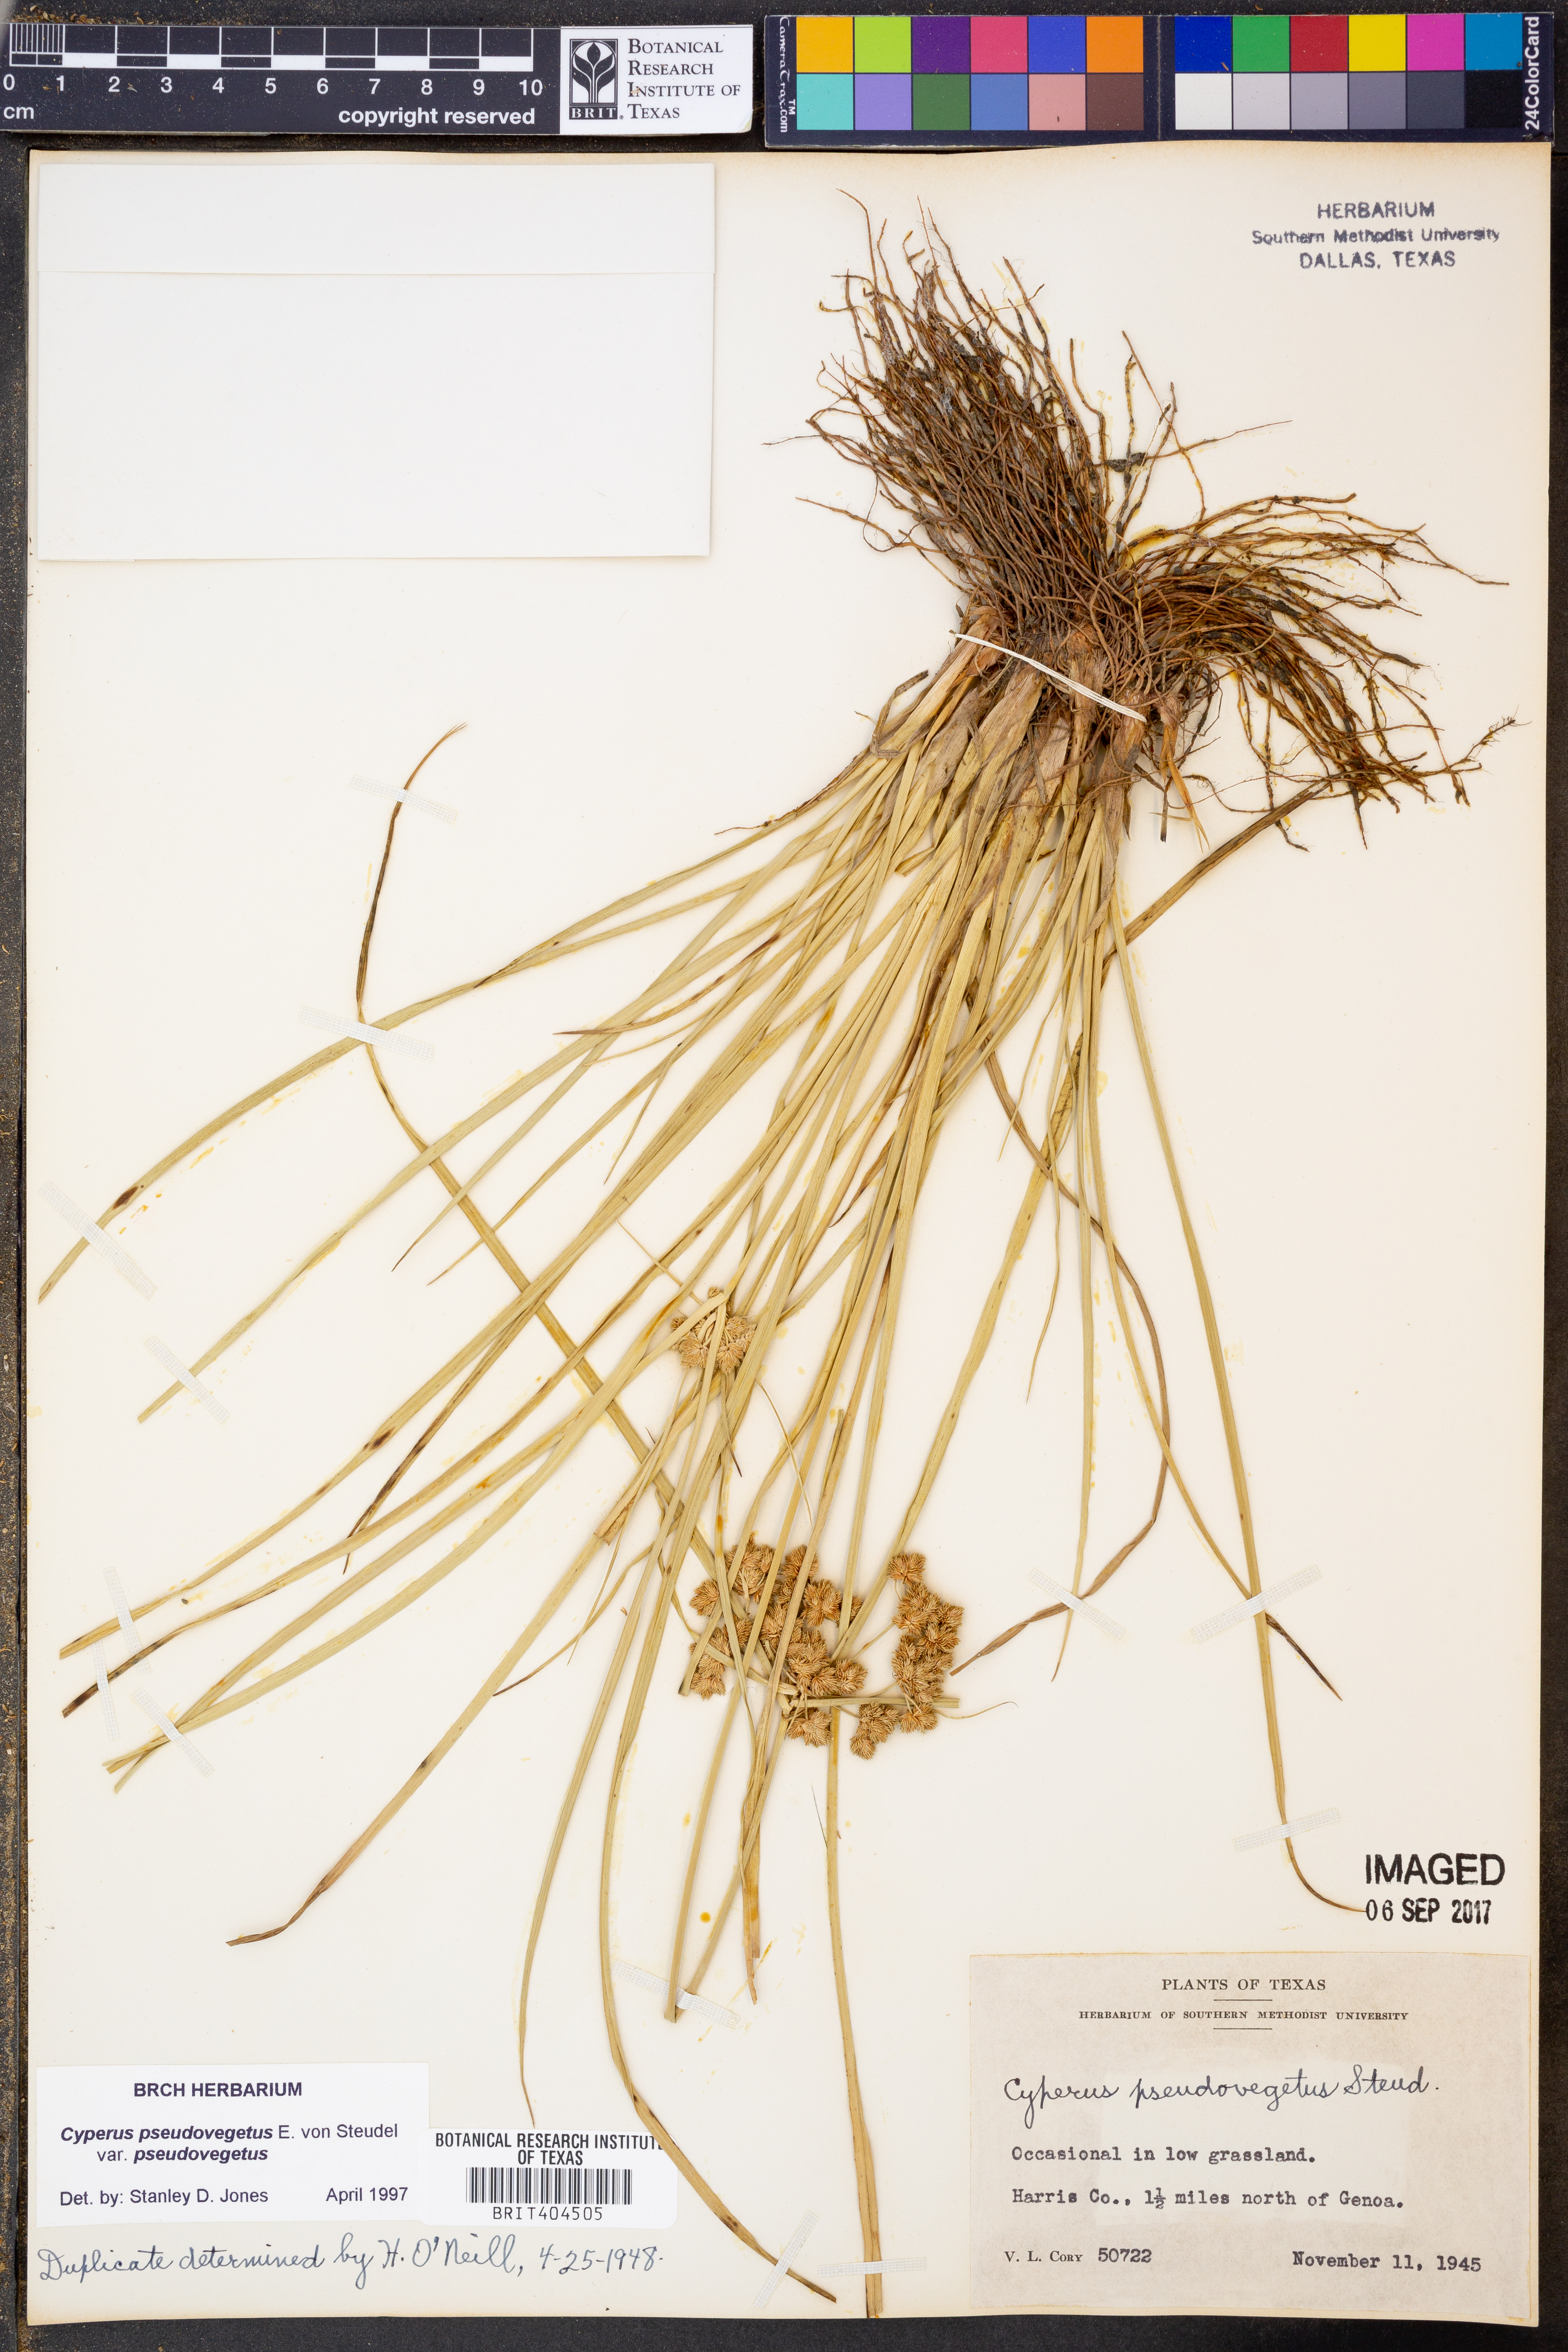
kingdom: Plantae
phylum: Tracheophyta
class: Liliopsida
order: Poales
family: Cyperaceae
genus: Cyperus
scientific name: Cyperus pseudovegetus
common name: Marsh flat sedge
